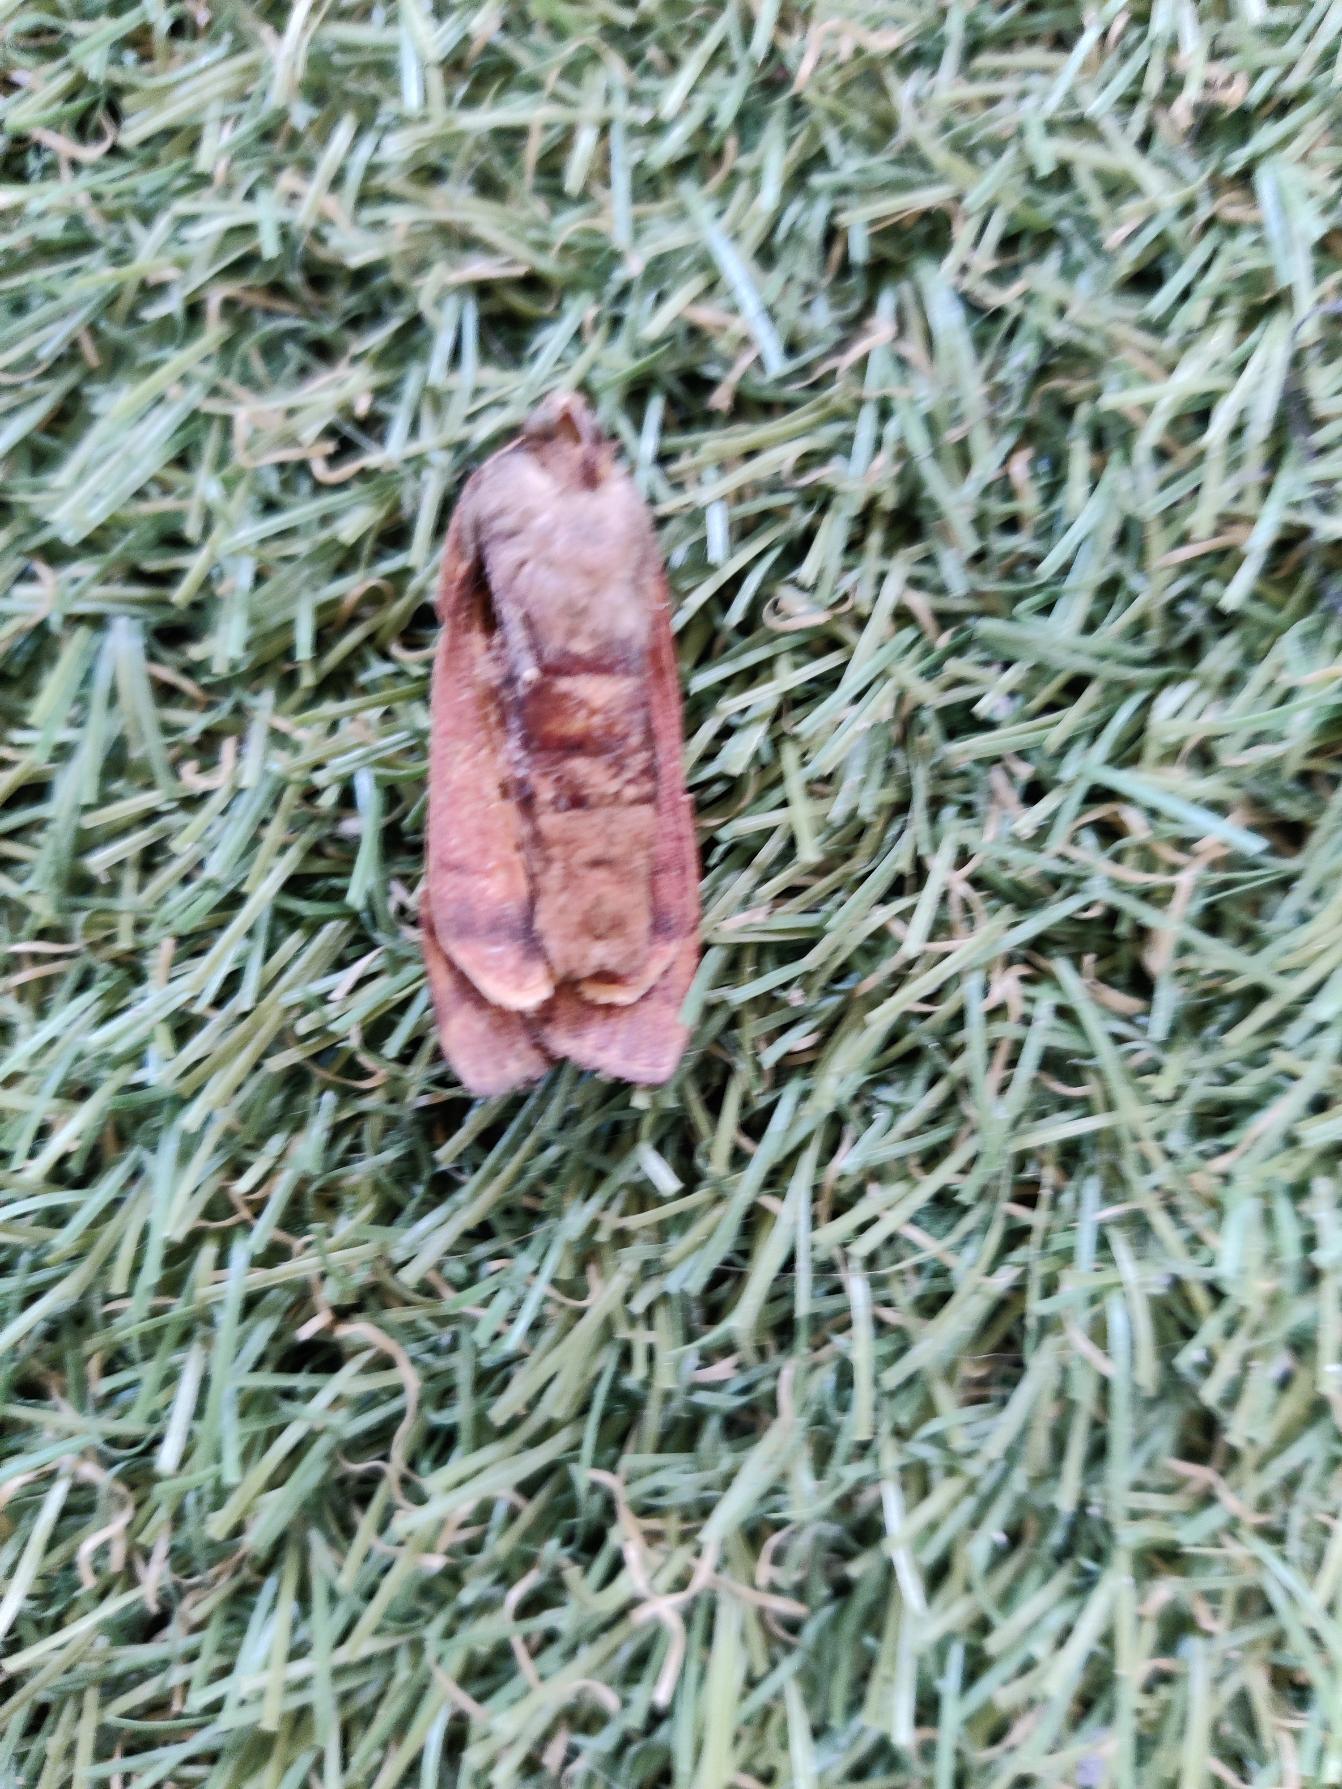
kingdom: Animalia
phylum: Arthropoda
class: Insecta
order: Lepidoptera
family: Noctuidae
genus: Noctua
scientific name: Noctua pronuba
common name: Stor smutugle
